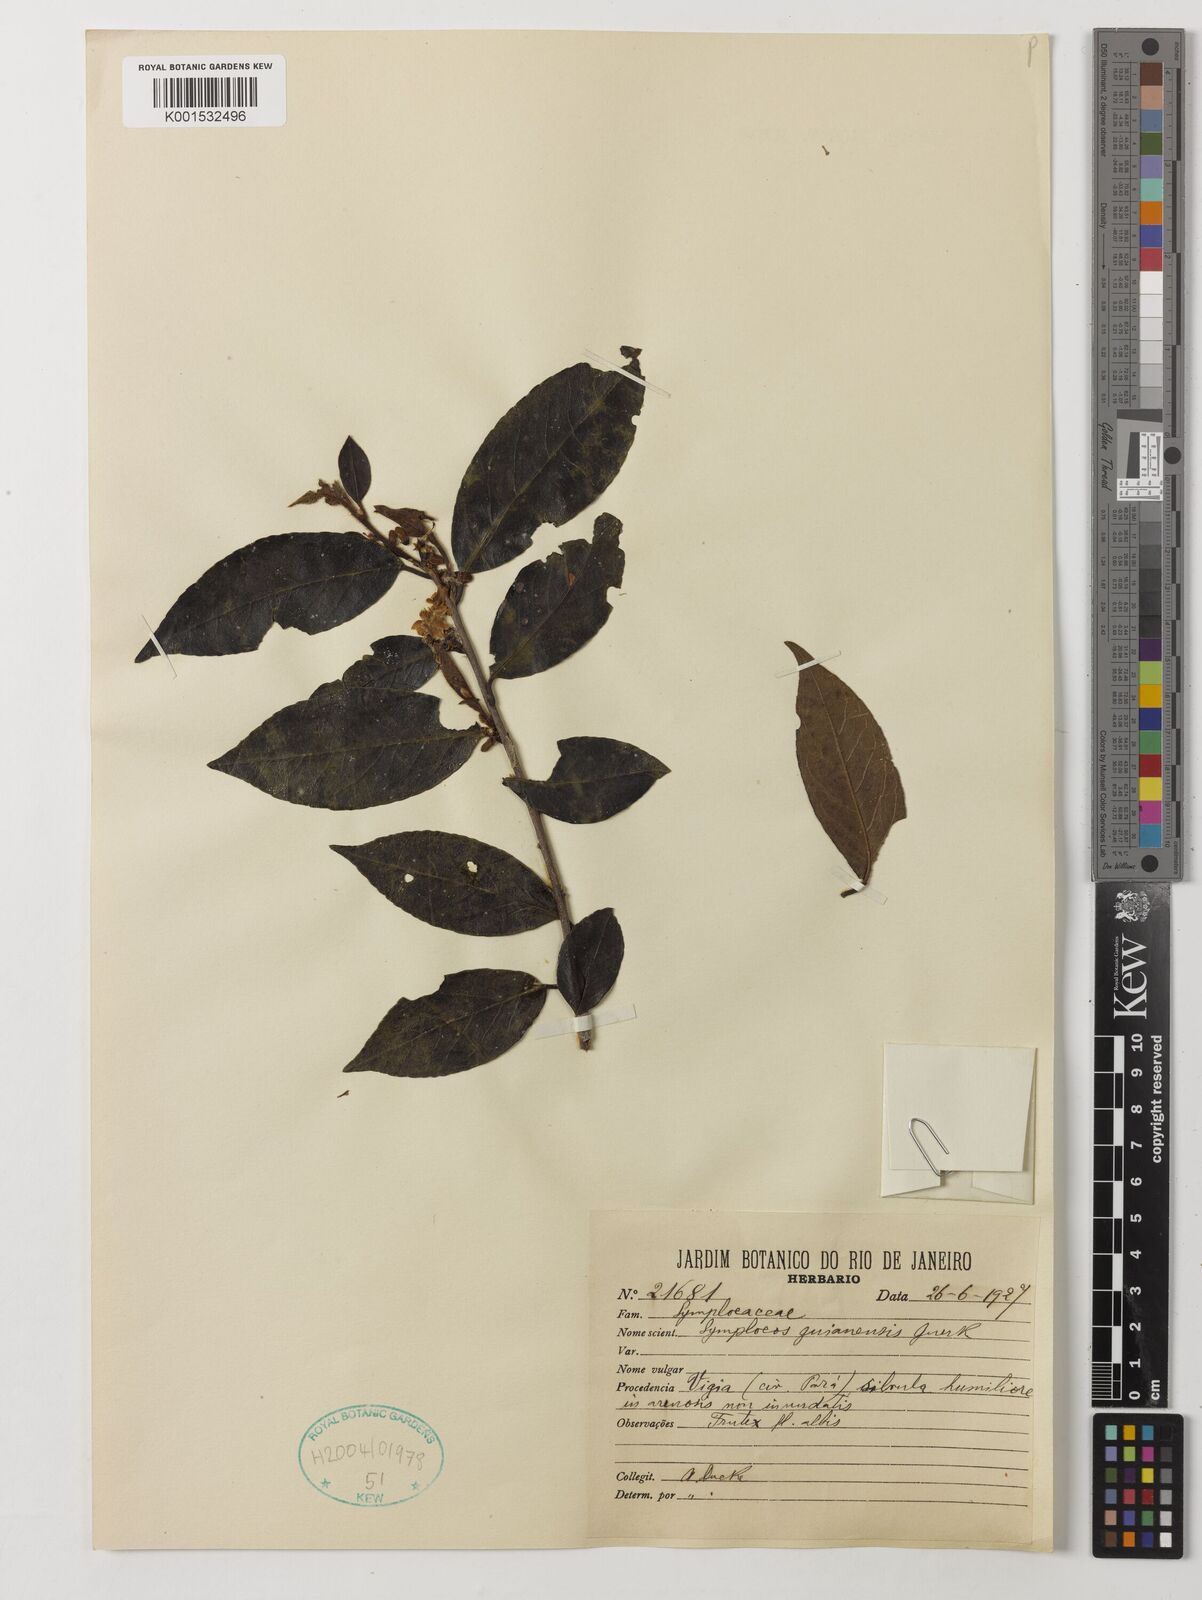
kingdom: Plantae
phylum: Tracheophyta
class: Magnoliopsida
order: Ericales
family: Symplocaceae
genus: Symplocos
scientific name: Symplocos guianensis
